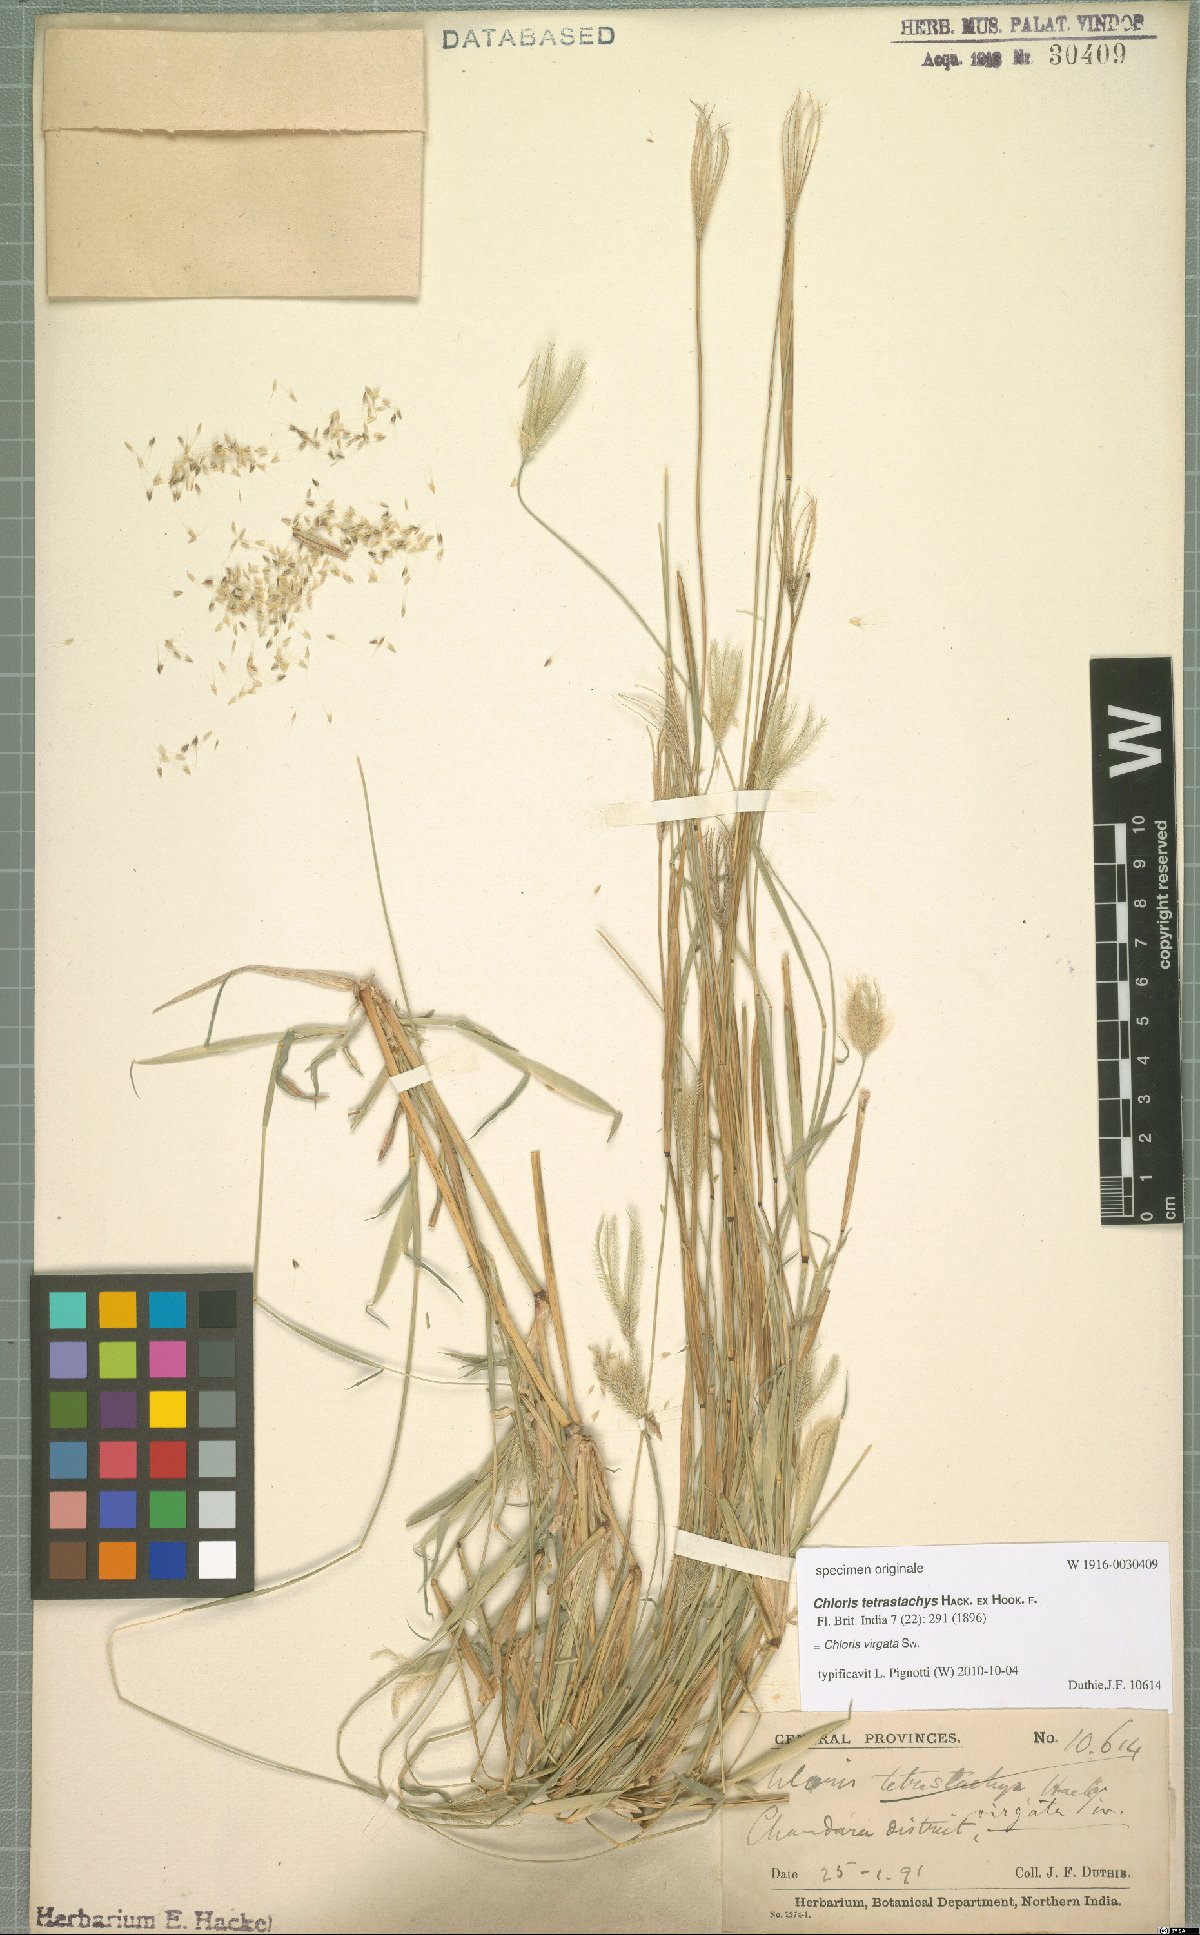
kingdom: Plantae
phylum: Tracheophyta
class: Liliopsida
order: Poales
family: Poaceae
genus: Chloris
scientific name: Chloris virgata
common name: Feathery rhodes-grass
